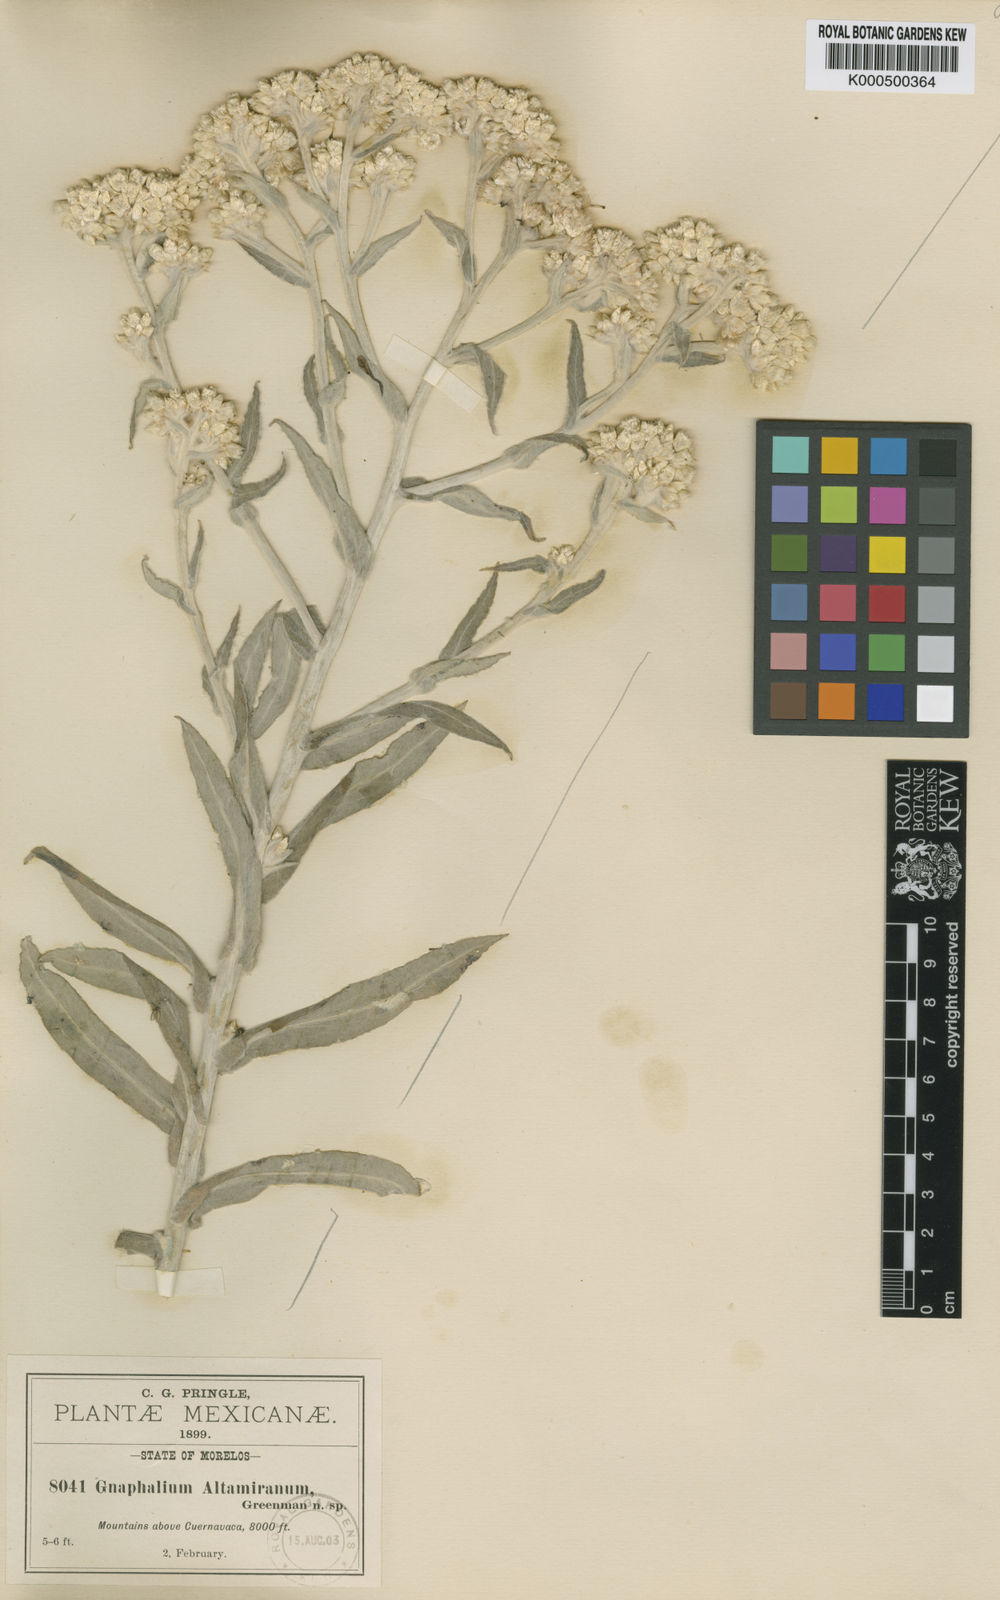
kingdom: Plantae
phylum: Tracheophyta
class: Magnoliopsida
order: Asterales
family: Asteraceae
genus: Pseudognaphalium
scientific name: Pseudognaphalium
